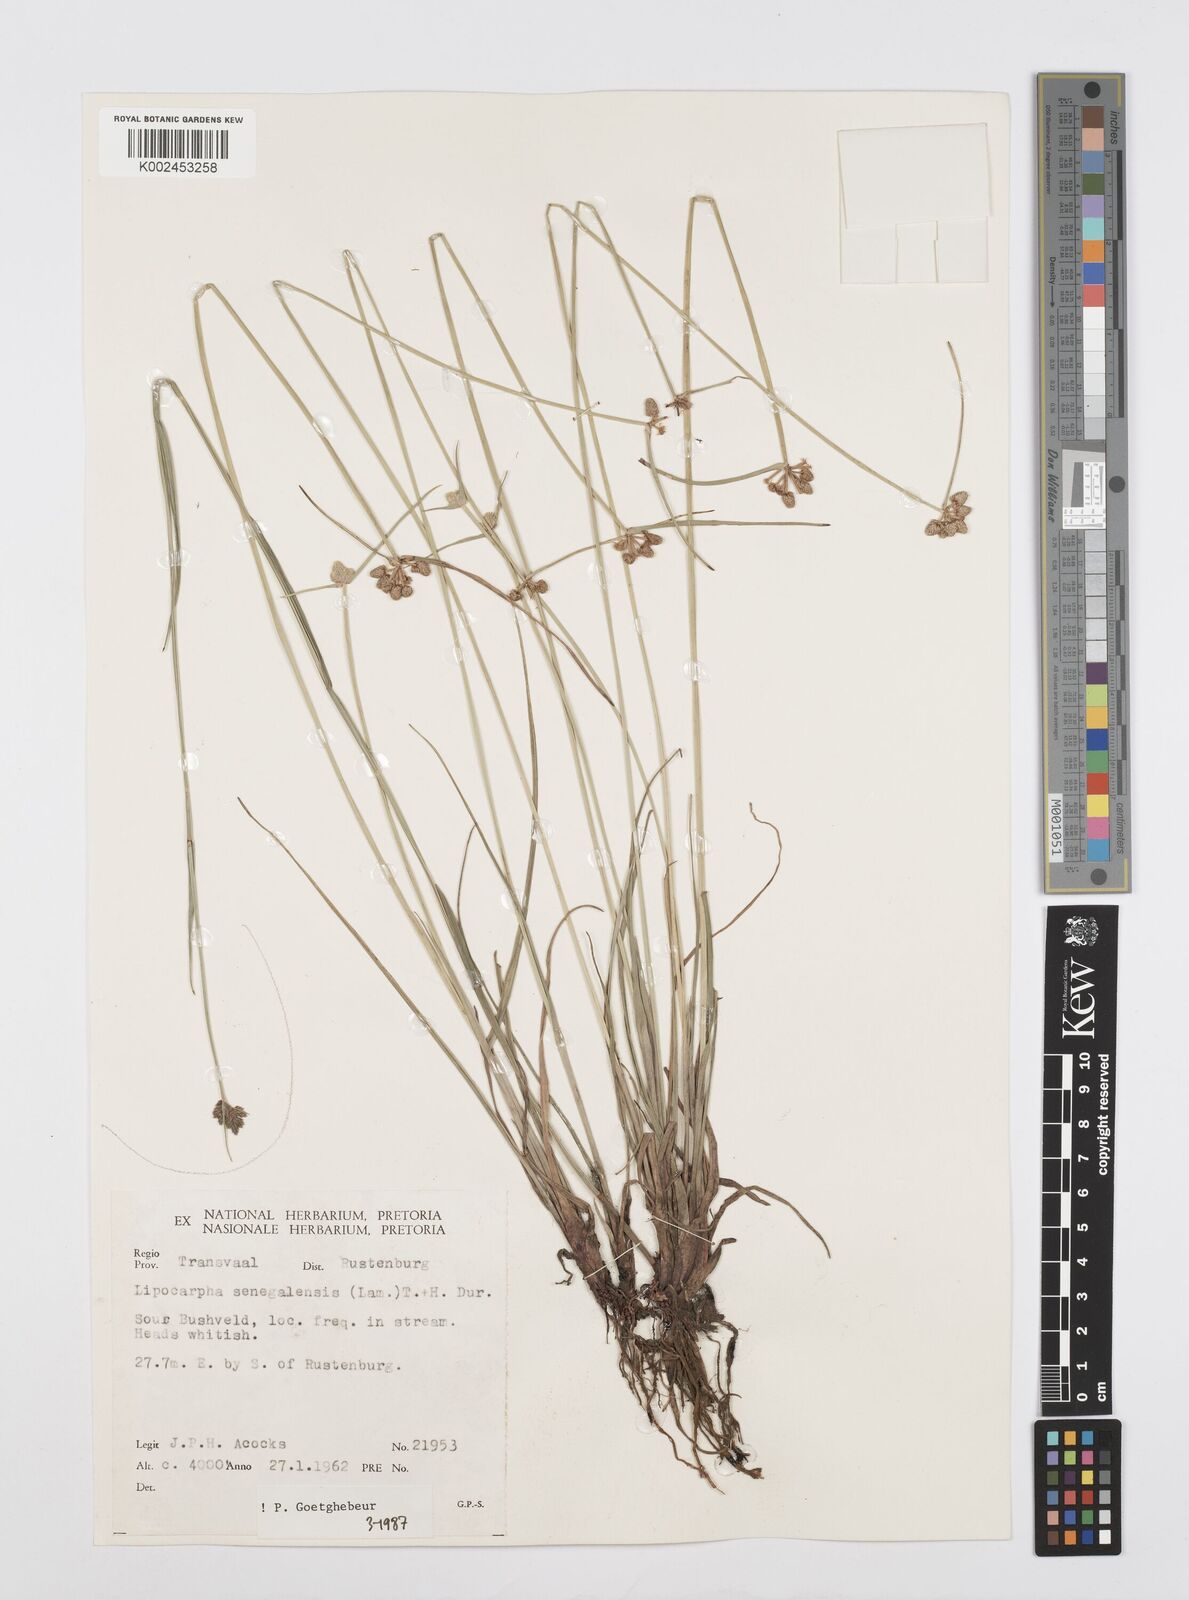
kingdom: Plantae
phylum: Tracheophyta
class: Liliopsida
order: Poales
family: Cyperaceae
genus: Cyperus
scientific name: Cyperus albescens
